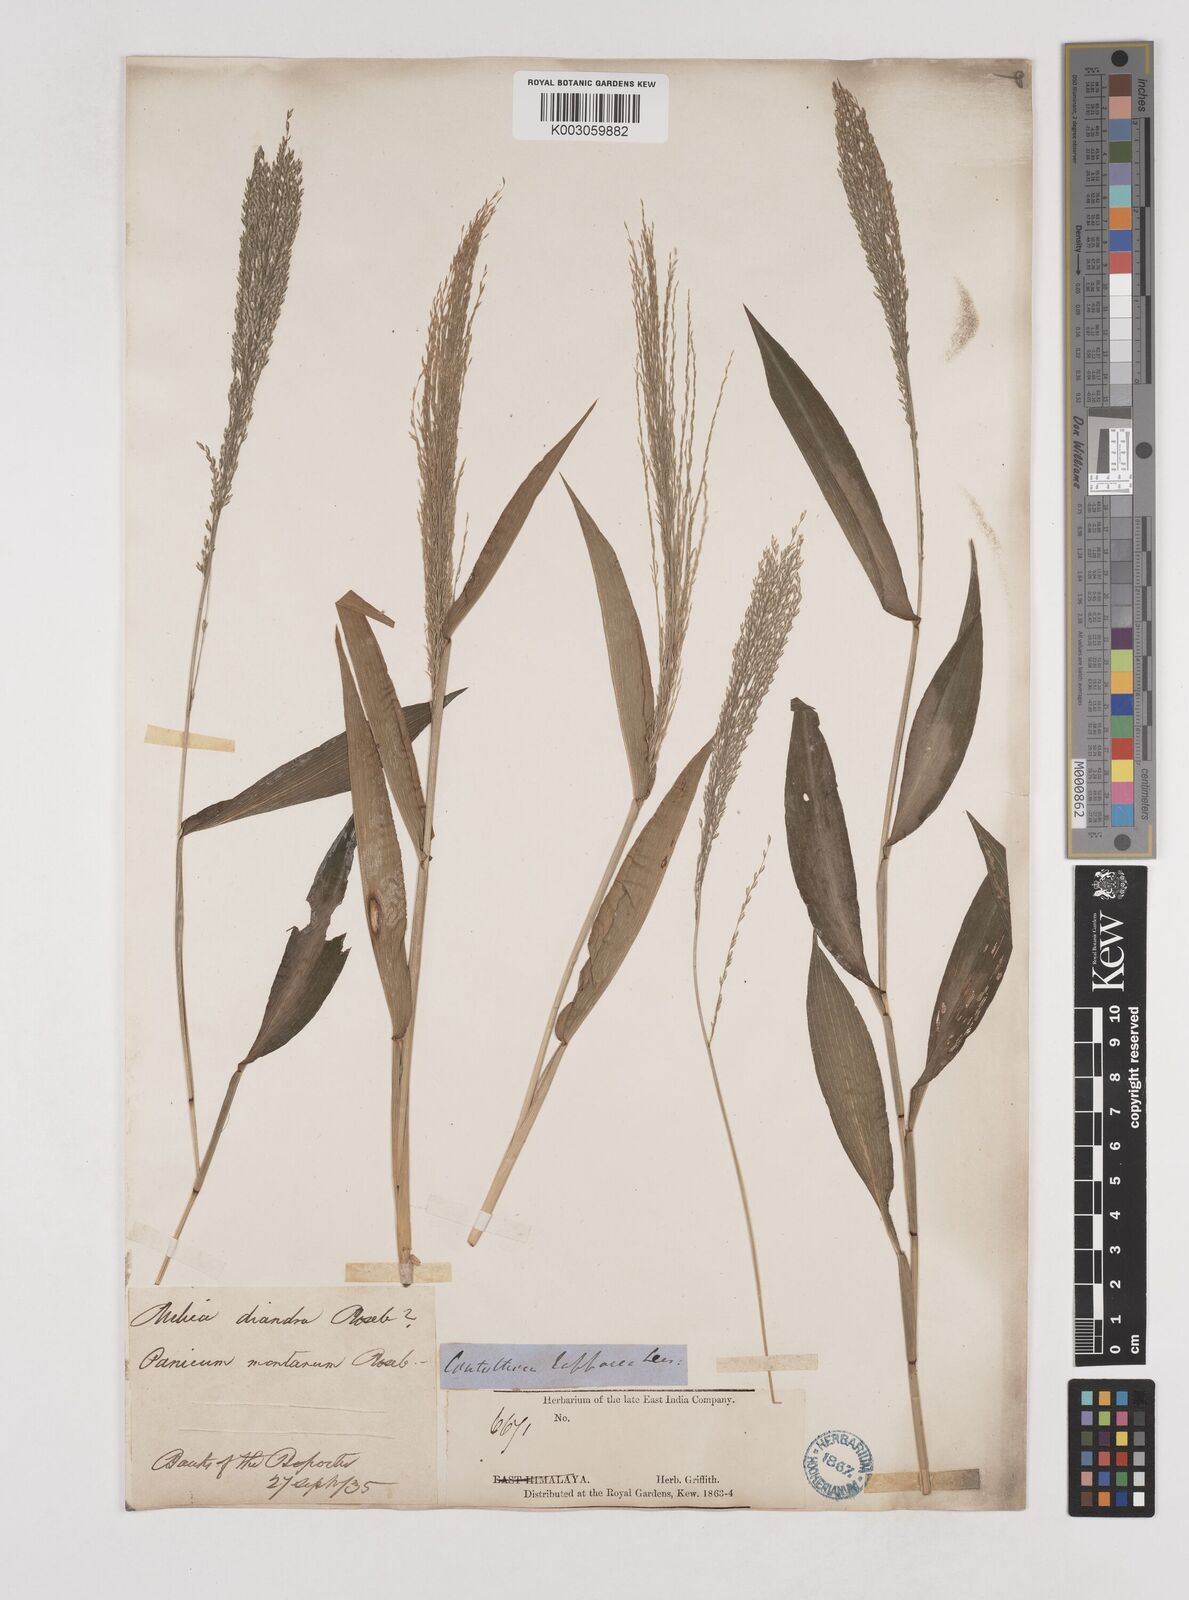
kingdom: Plantae
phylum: Tracheophyta
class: Liliopsida
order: Poales
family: Poaceae
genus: Centotheca
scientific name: Centotheca lappacea
